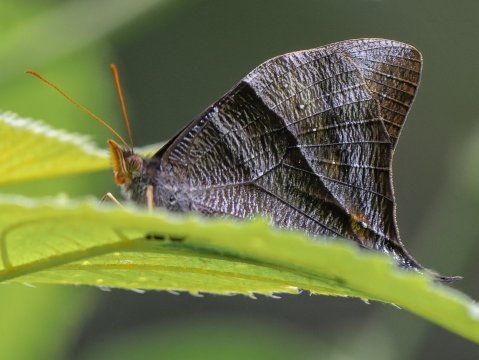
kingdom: Animalia
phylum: Arthropoda
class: Insecta
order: Lepidoptera
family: Nymphalidae
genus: Corades
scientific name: Corades pannonia
